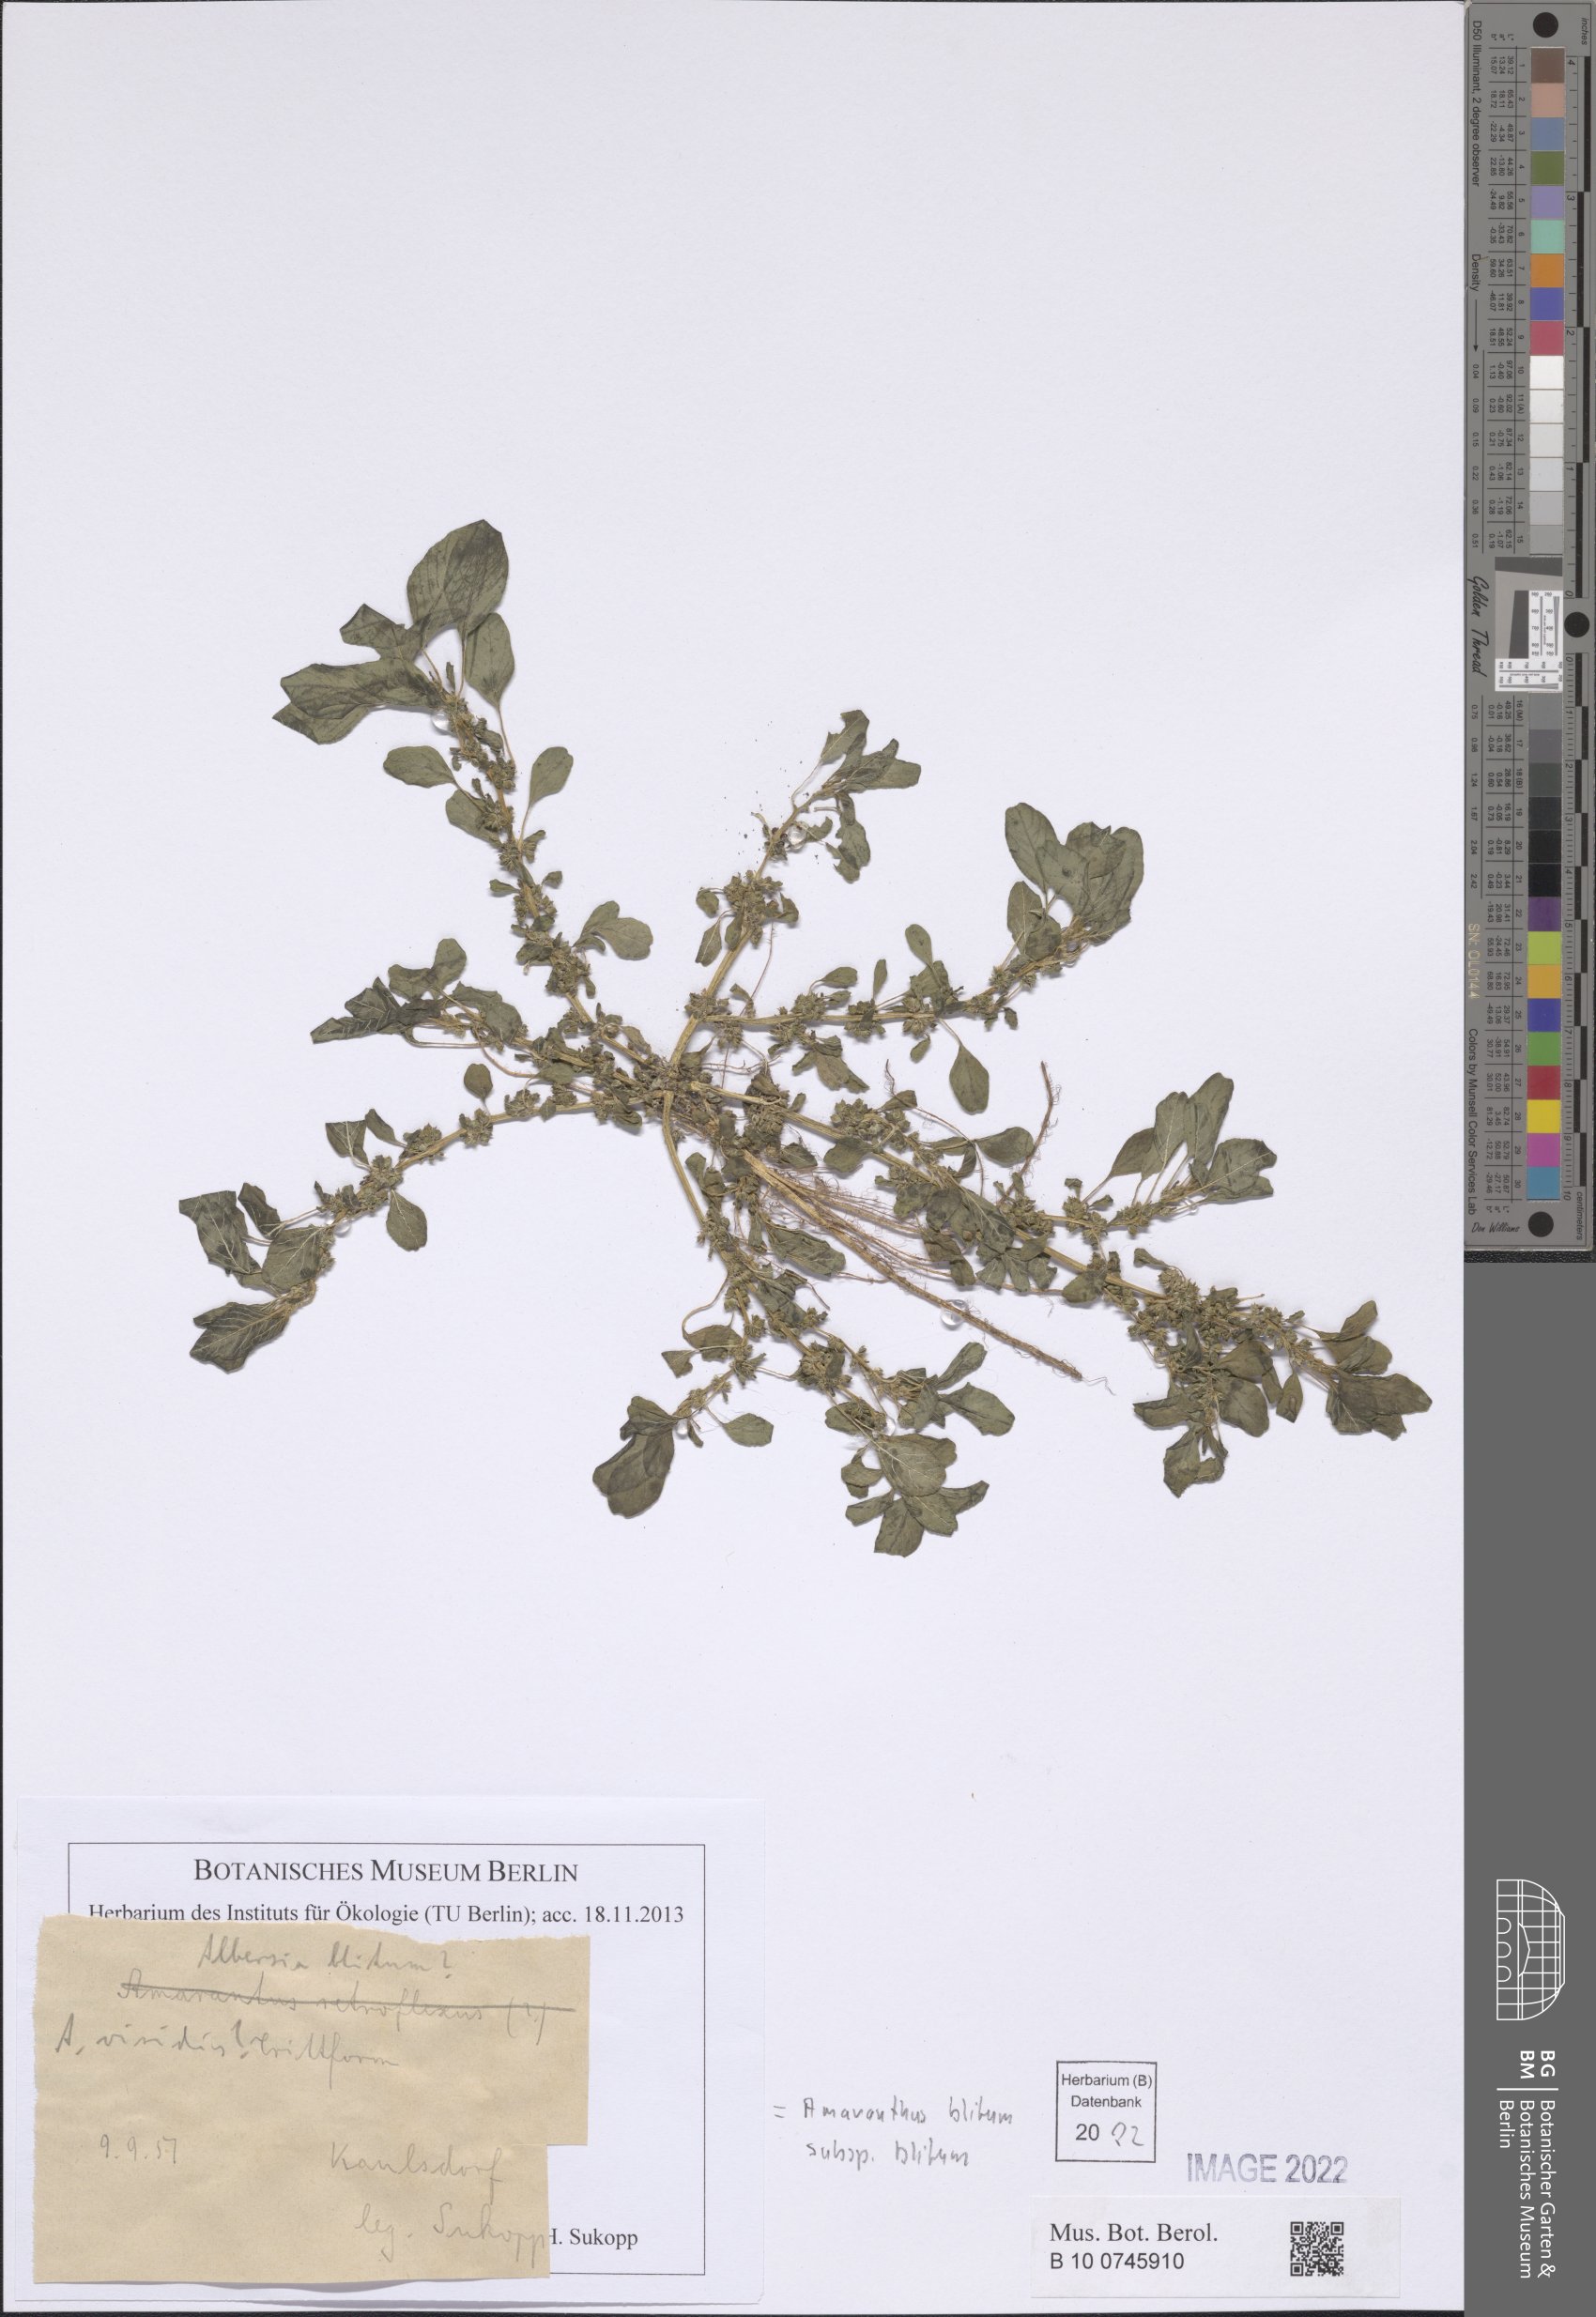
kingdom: Plantae
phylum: Tracheophyta
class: Magnoliopsida
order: Caryophyllales
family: Amaranthaceae
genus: Amaranthus
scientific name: Amaranthus blitum
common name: Purple amaranth
